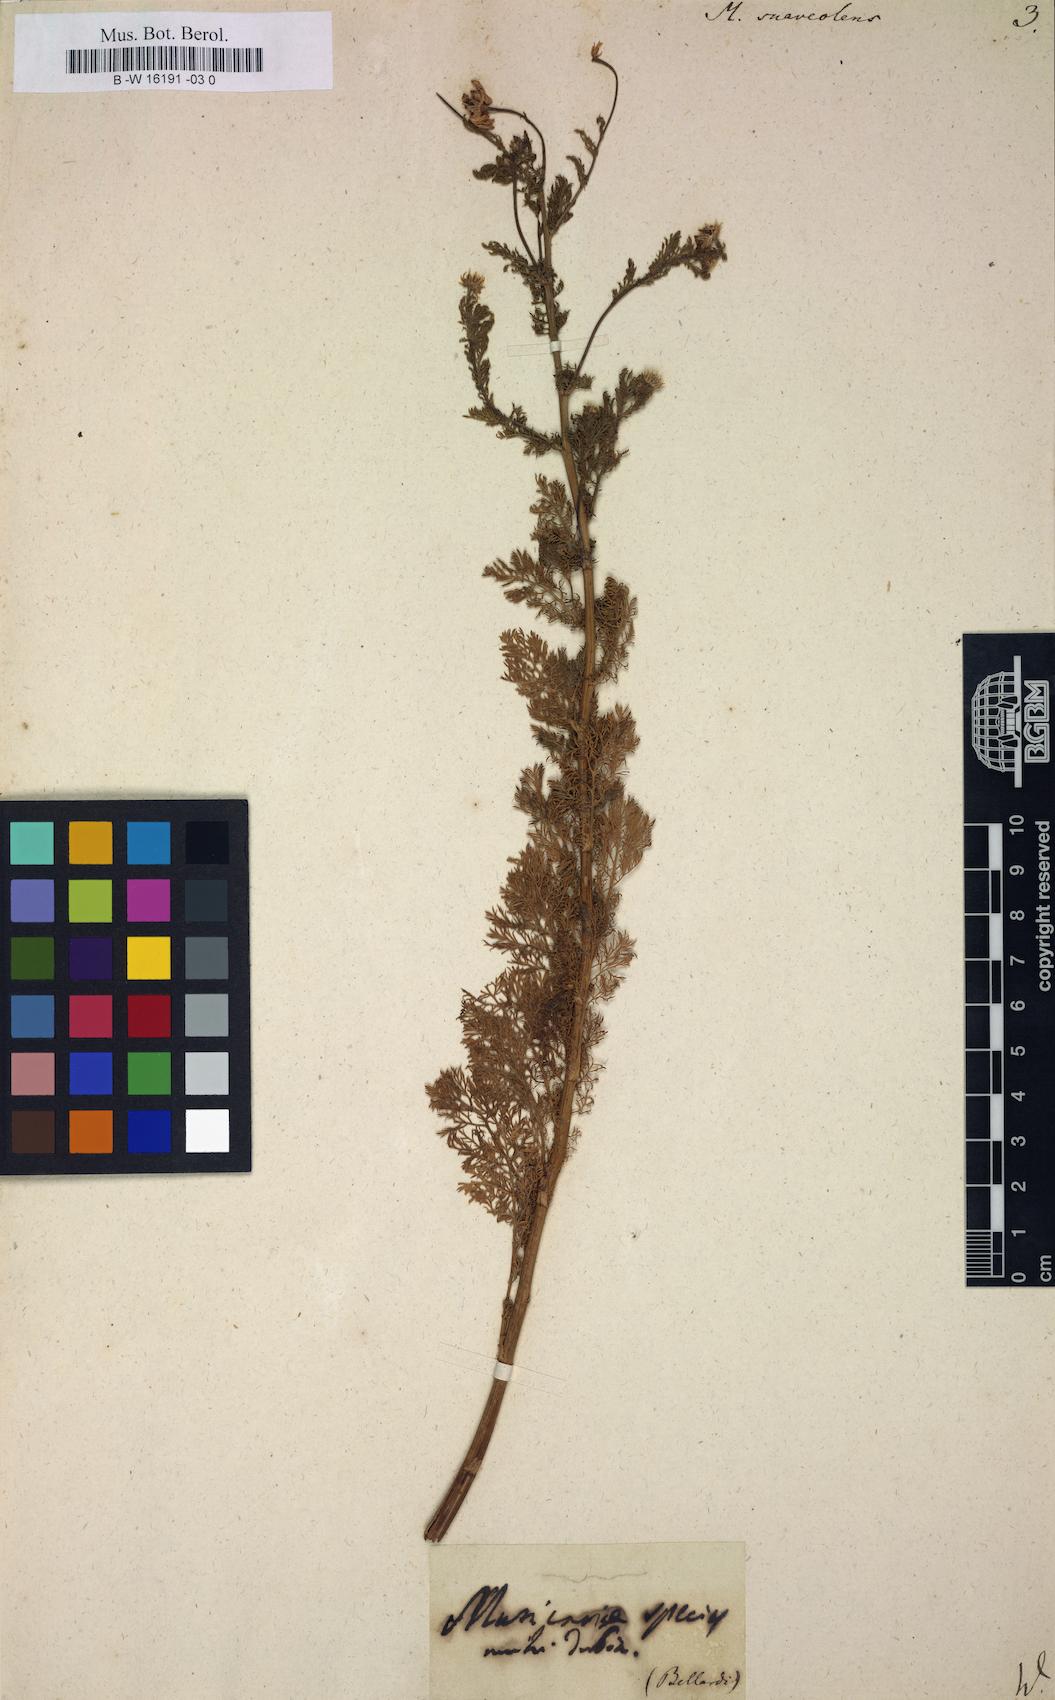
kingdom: Plantae
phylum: Tracheophyta
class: Magnoliopsida
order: Asterales
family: Asteraceae
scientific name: Asteraceae
